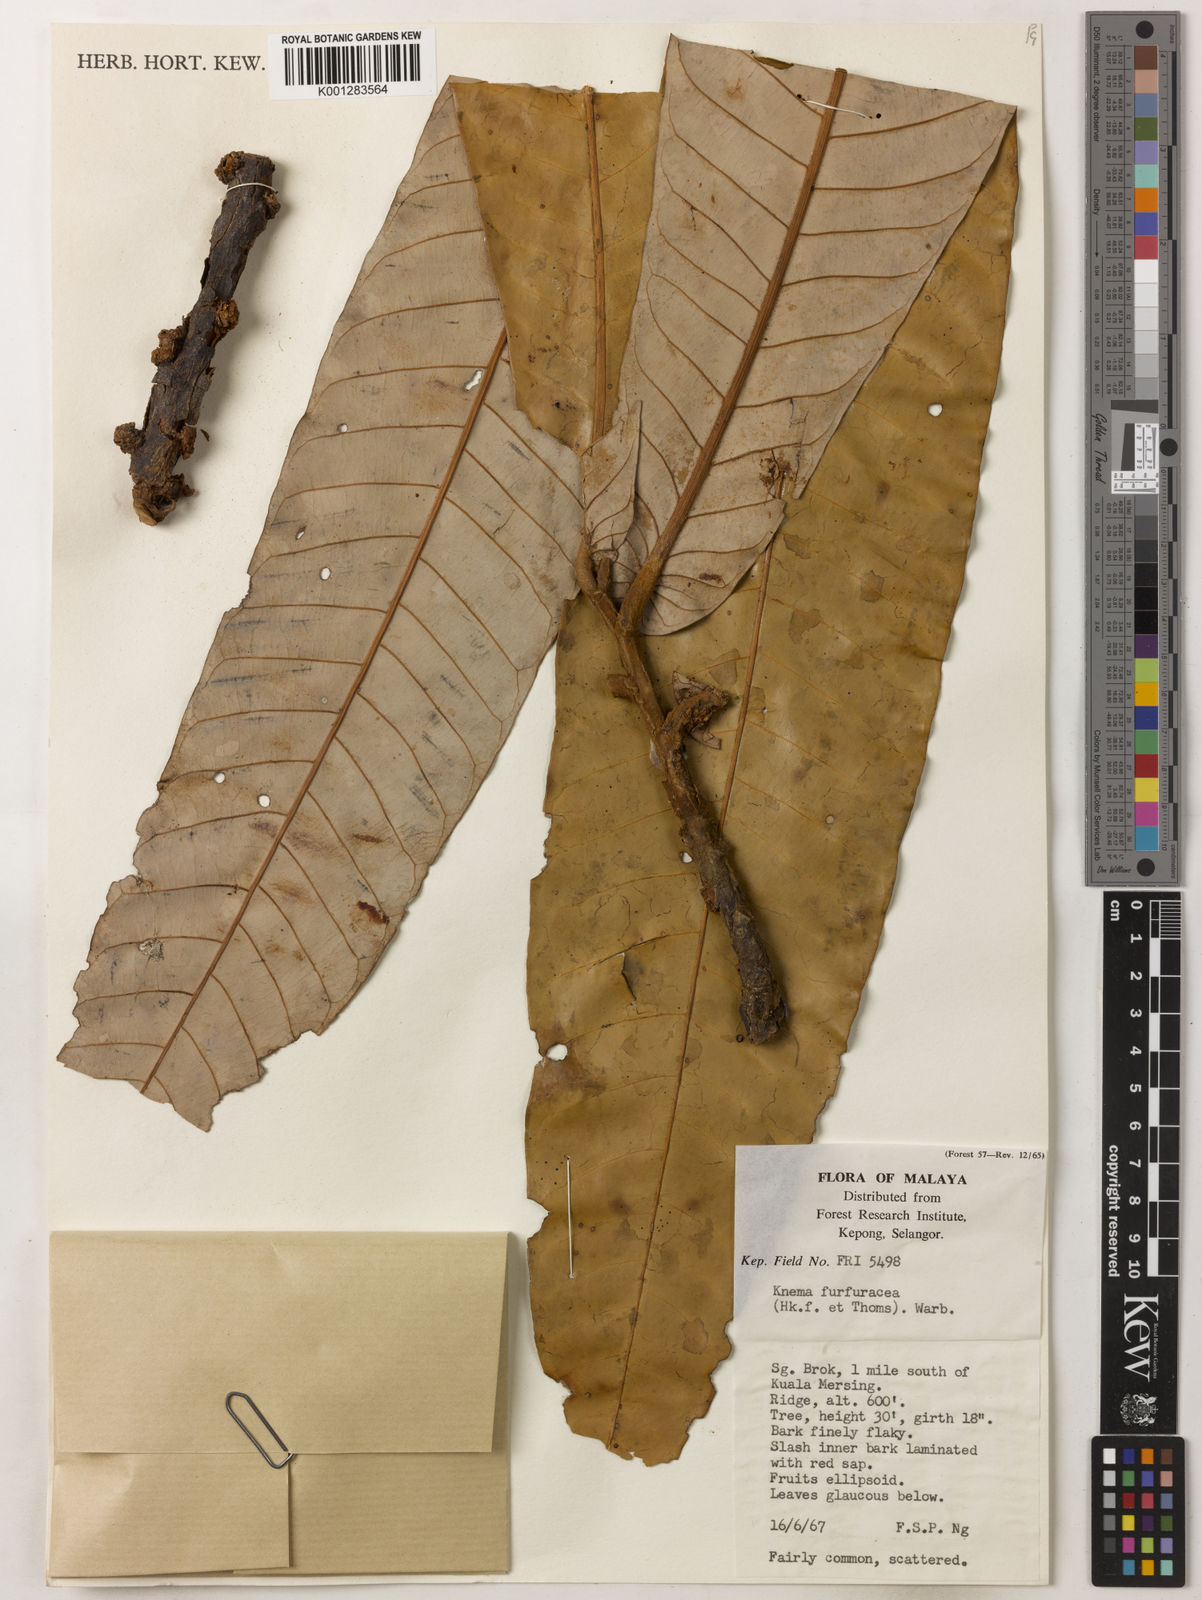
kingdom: Plantae
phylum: Tracheophyta
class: Magnoliopsida
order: Magnoliales
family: Myristicaceae
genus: Knema
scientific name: Knema furfuracea
